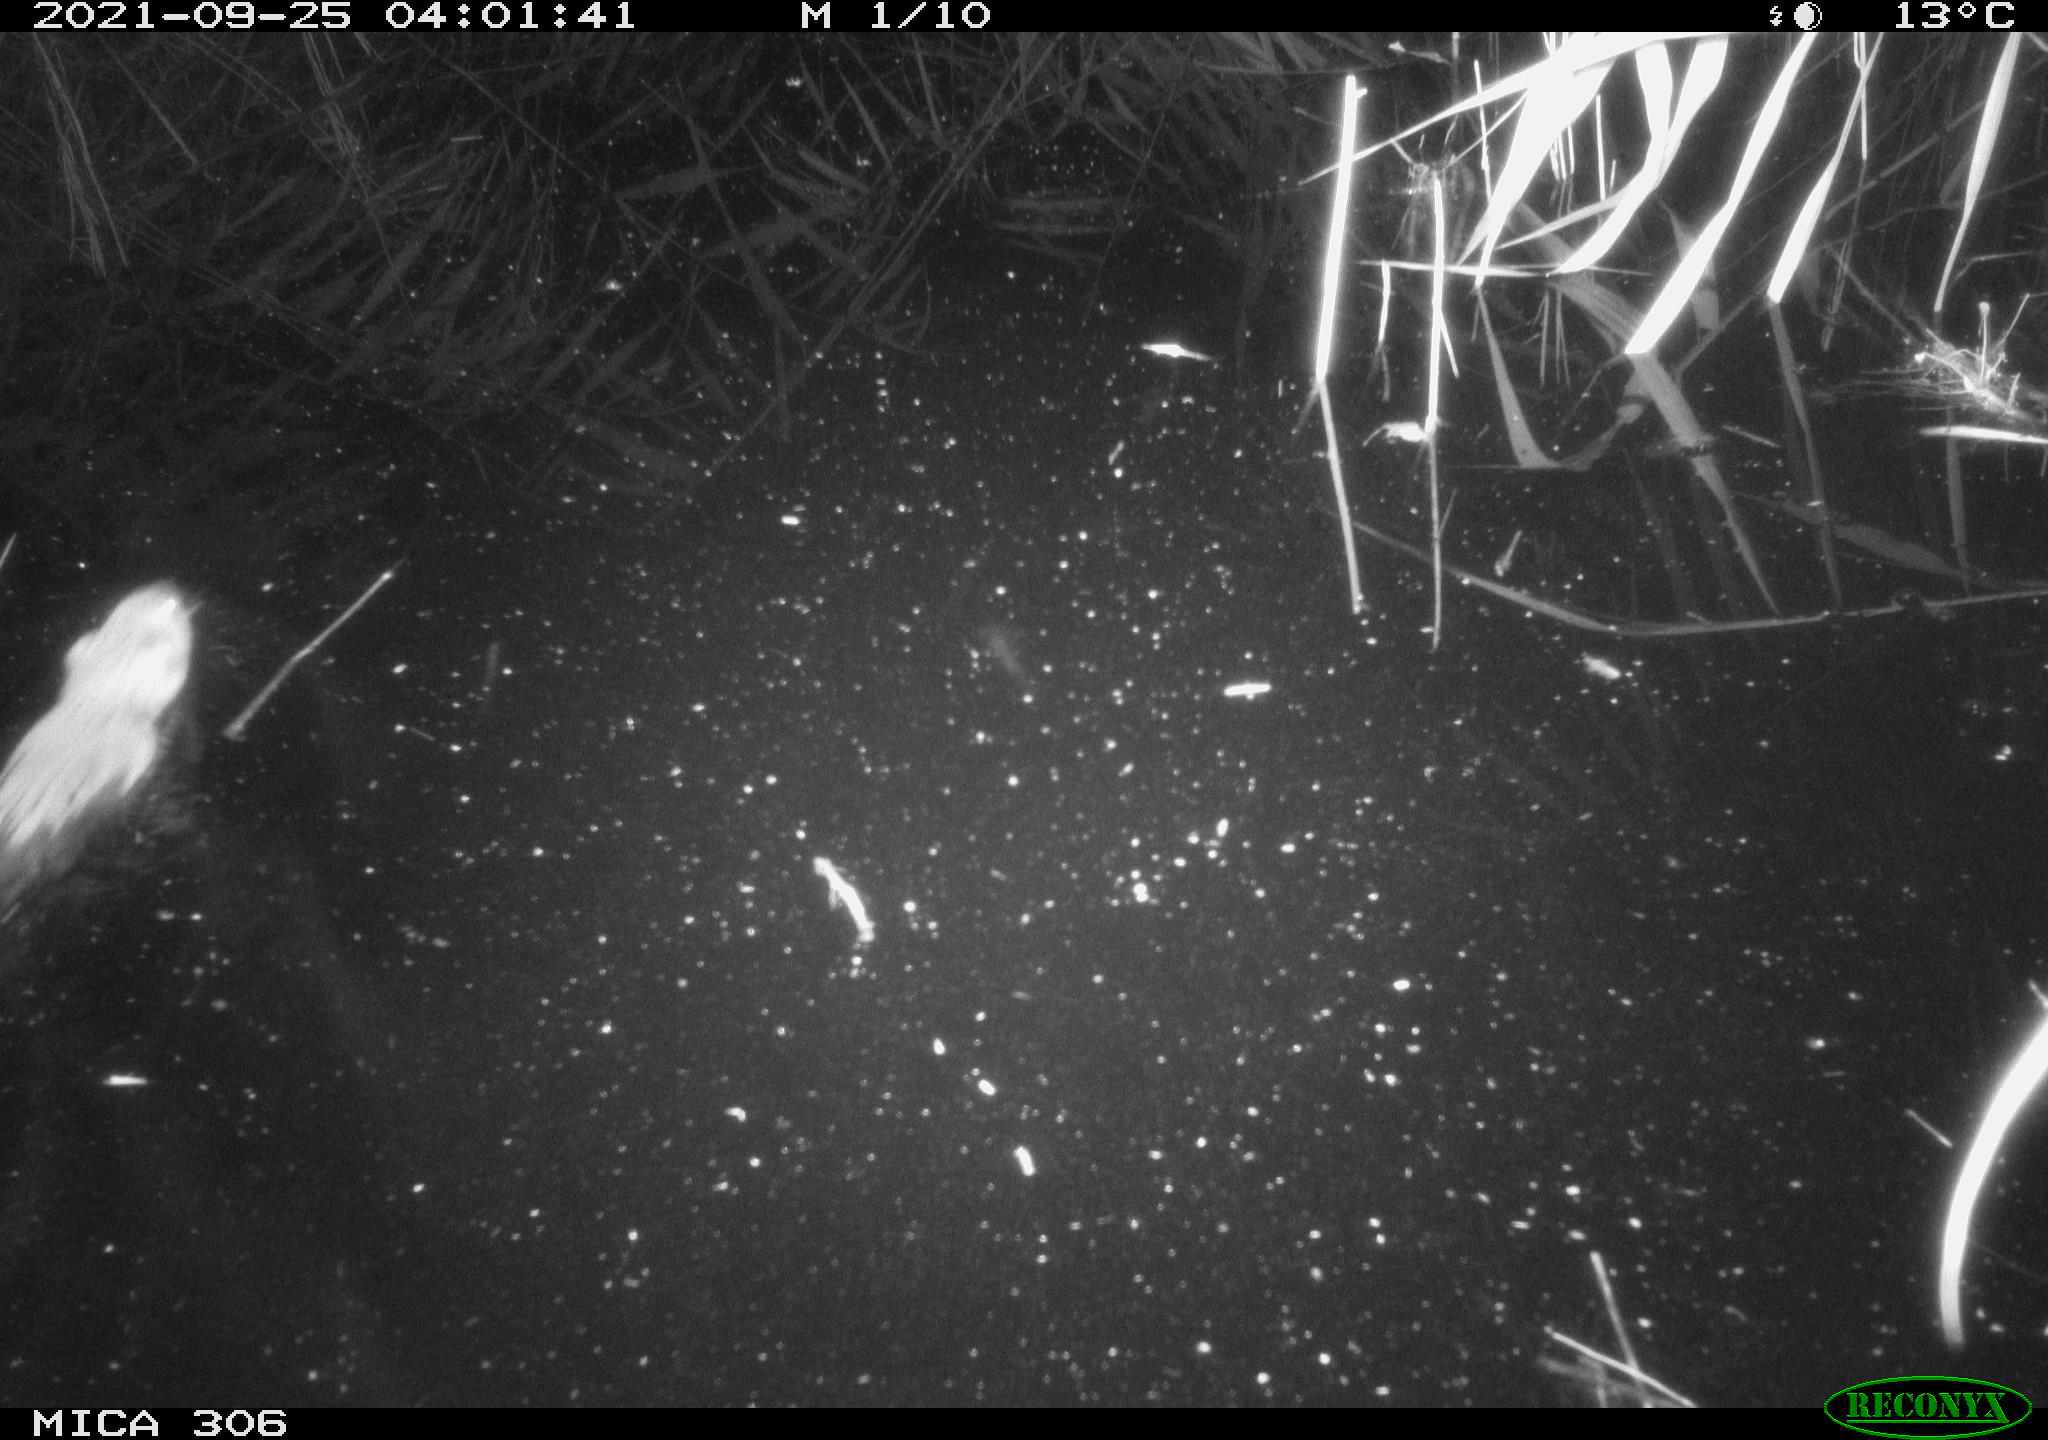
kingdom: Animalia
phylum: Chordata
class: Mammalia
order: Rodentia
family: Cricetidae
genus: Ondatra
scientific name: Ondatra zibethicus
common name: Muskrat
